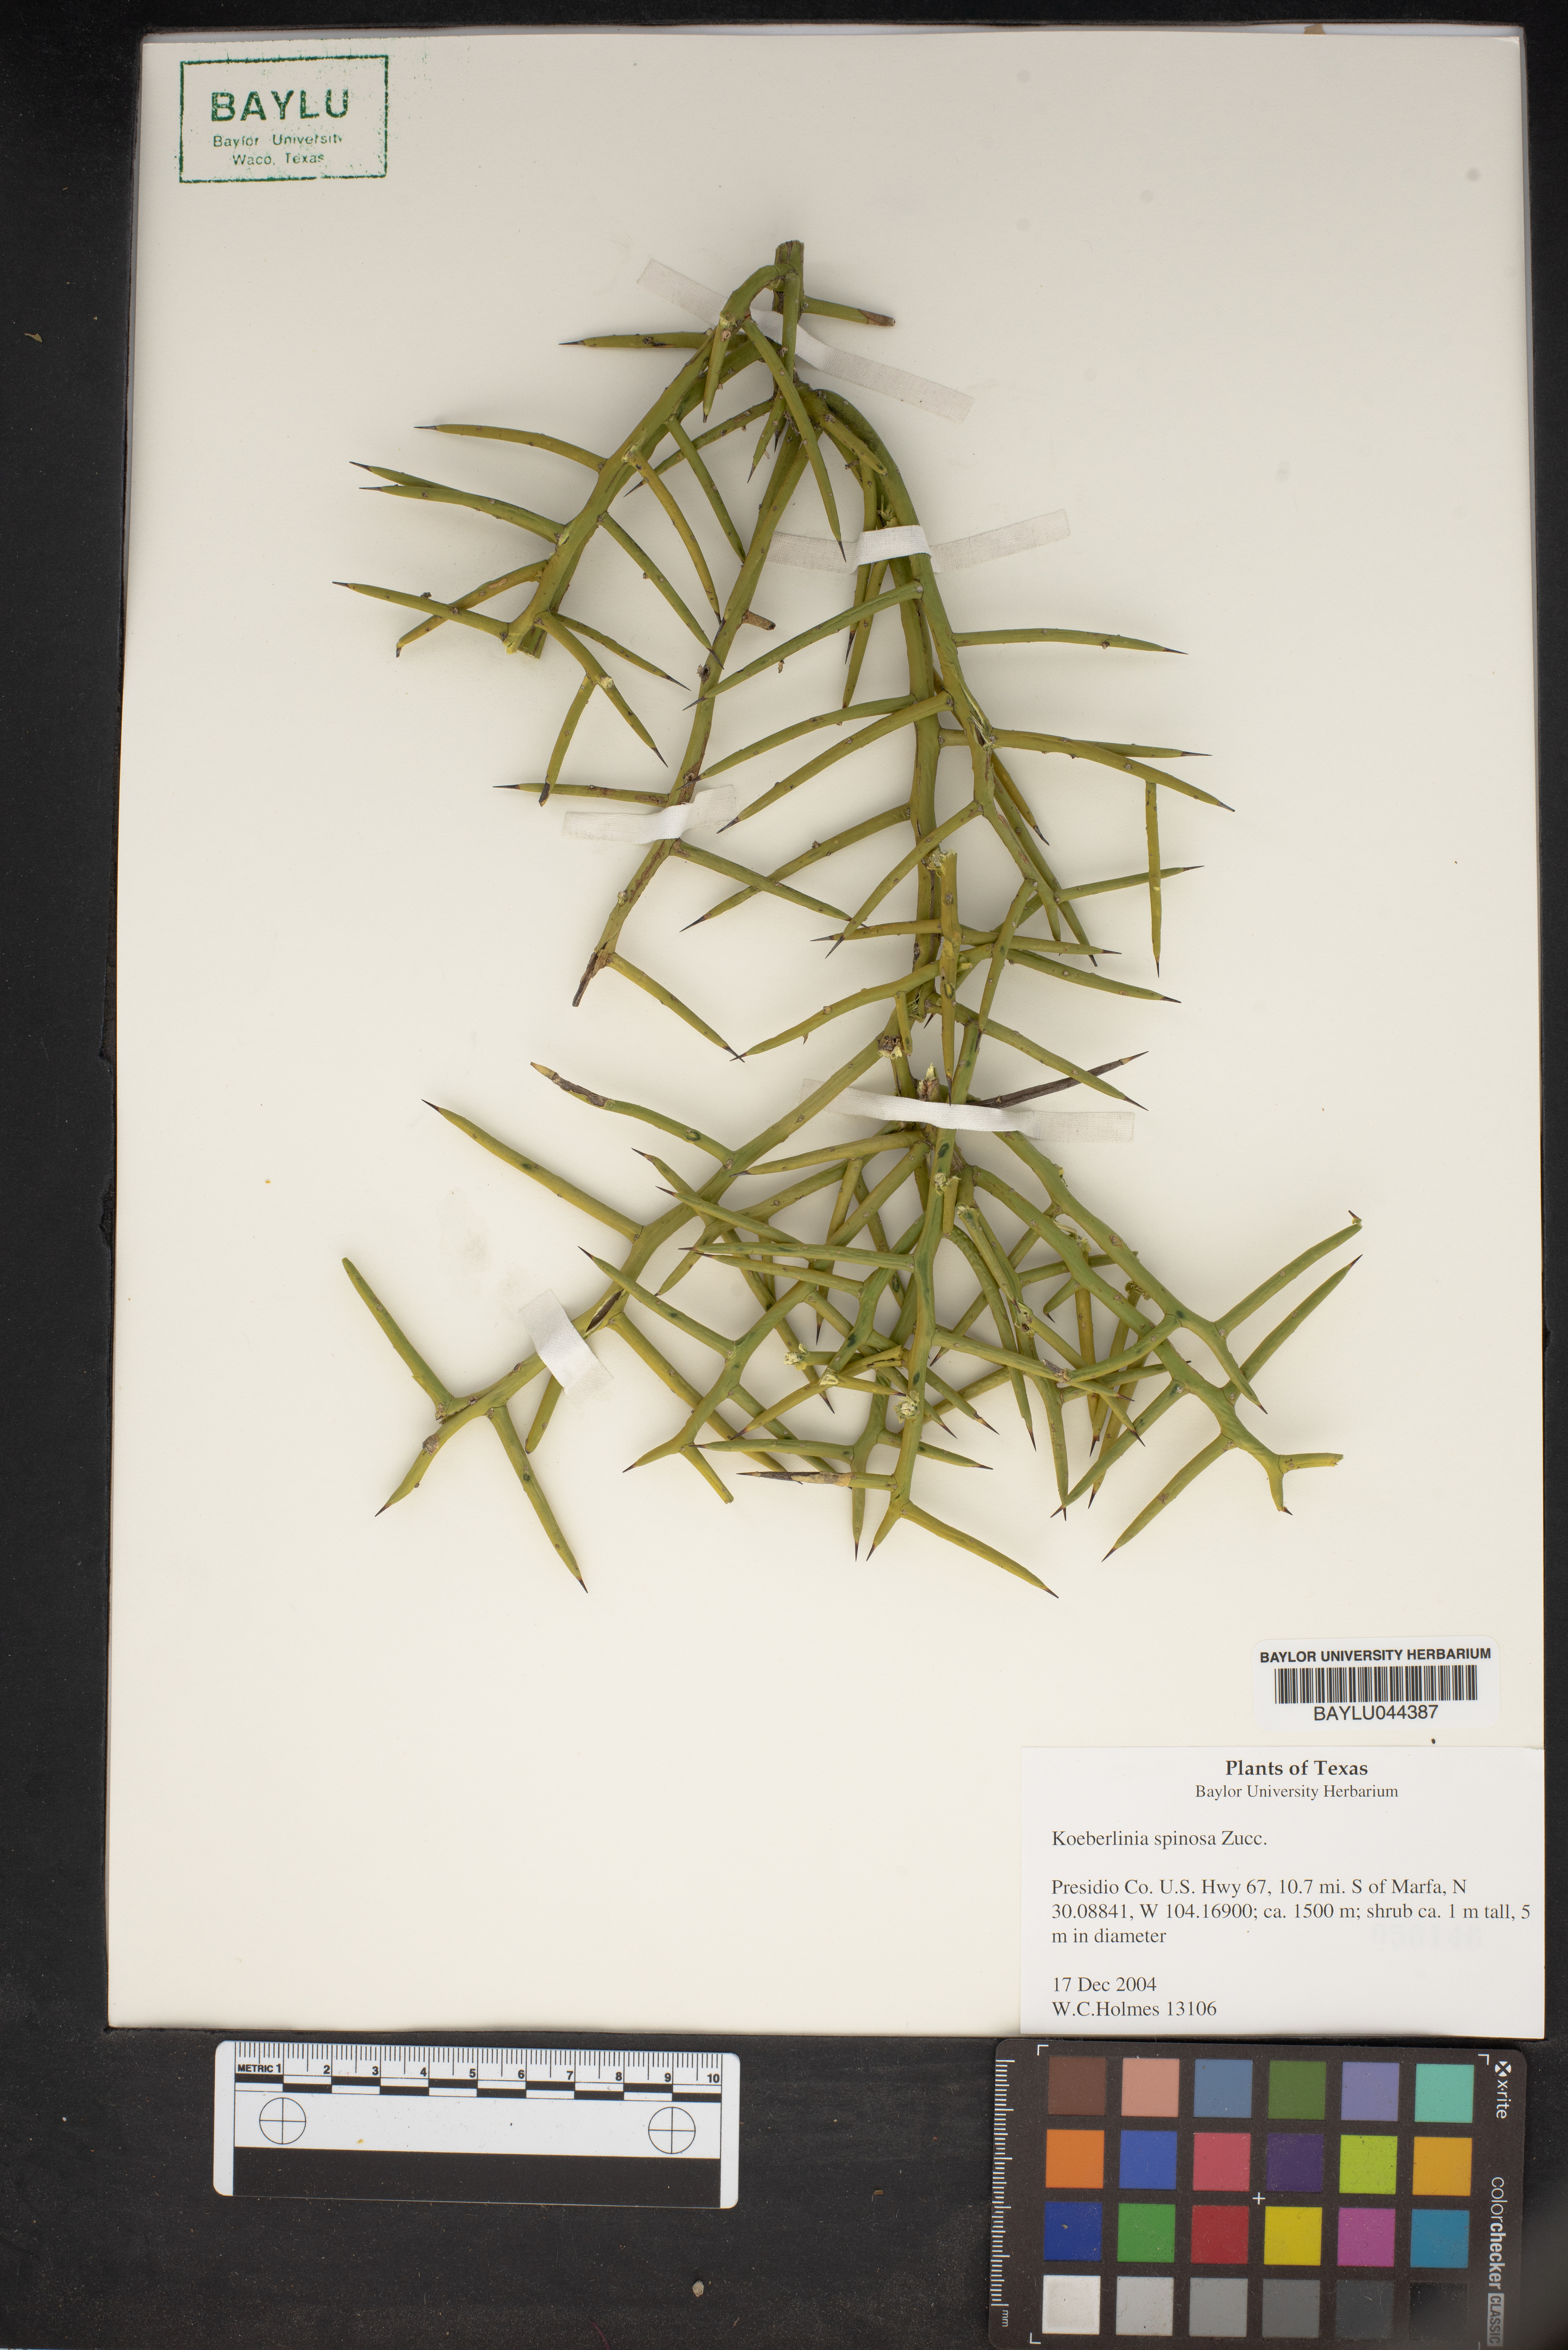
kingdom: Plantae
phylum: Tracheophyta
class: Magnoliopsida
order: Brassicales
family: Koeberliniaceae
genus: Koeberlinia
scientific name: Koeberlinia spinosa
